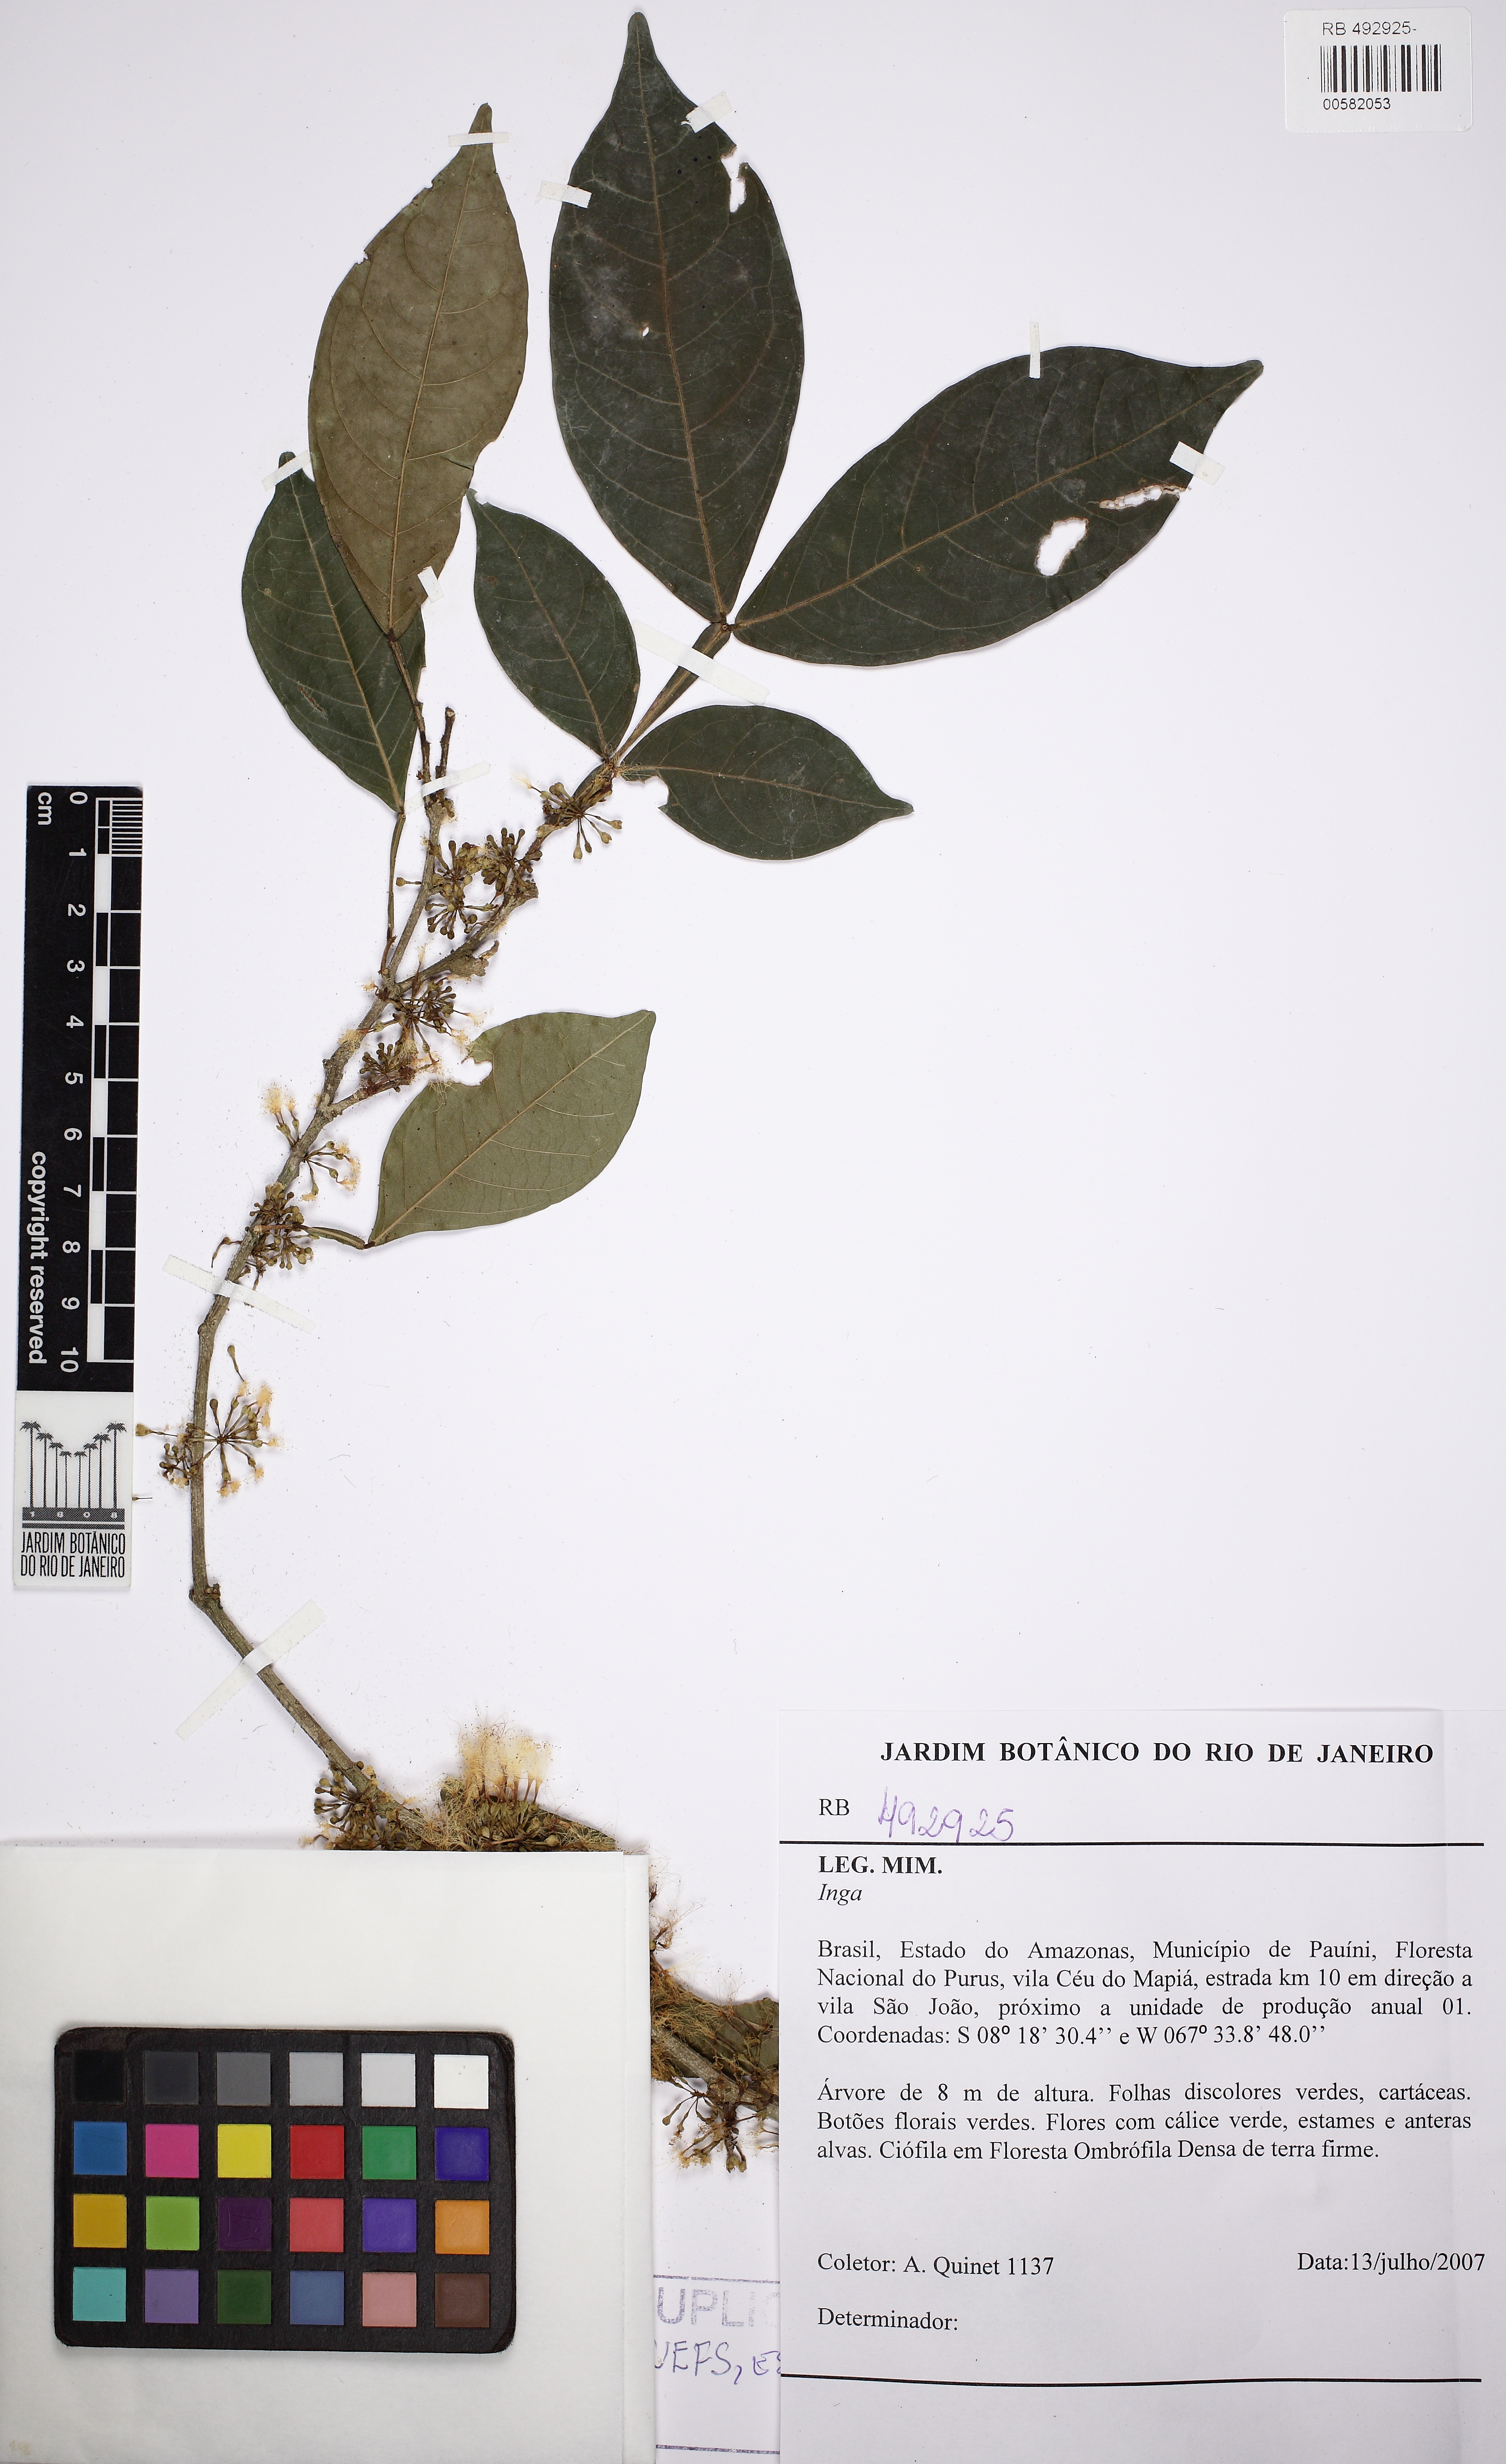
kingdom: Plantae
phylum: Tracheophyta
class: Magnoliopsida
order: Fabales
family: Fabaceae
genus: Inga
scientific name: Inga obidensis
